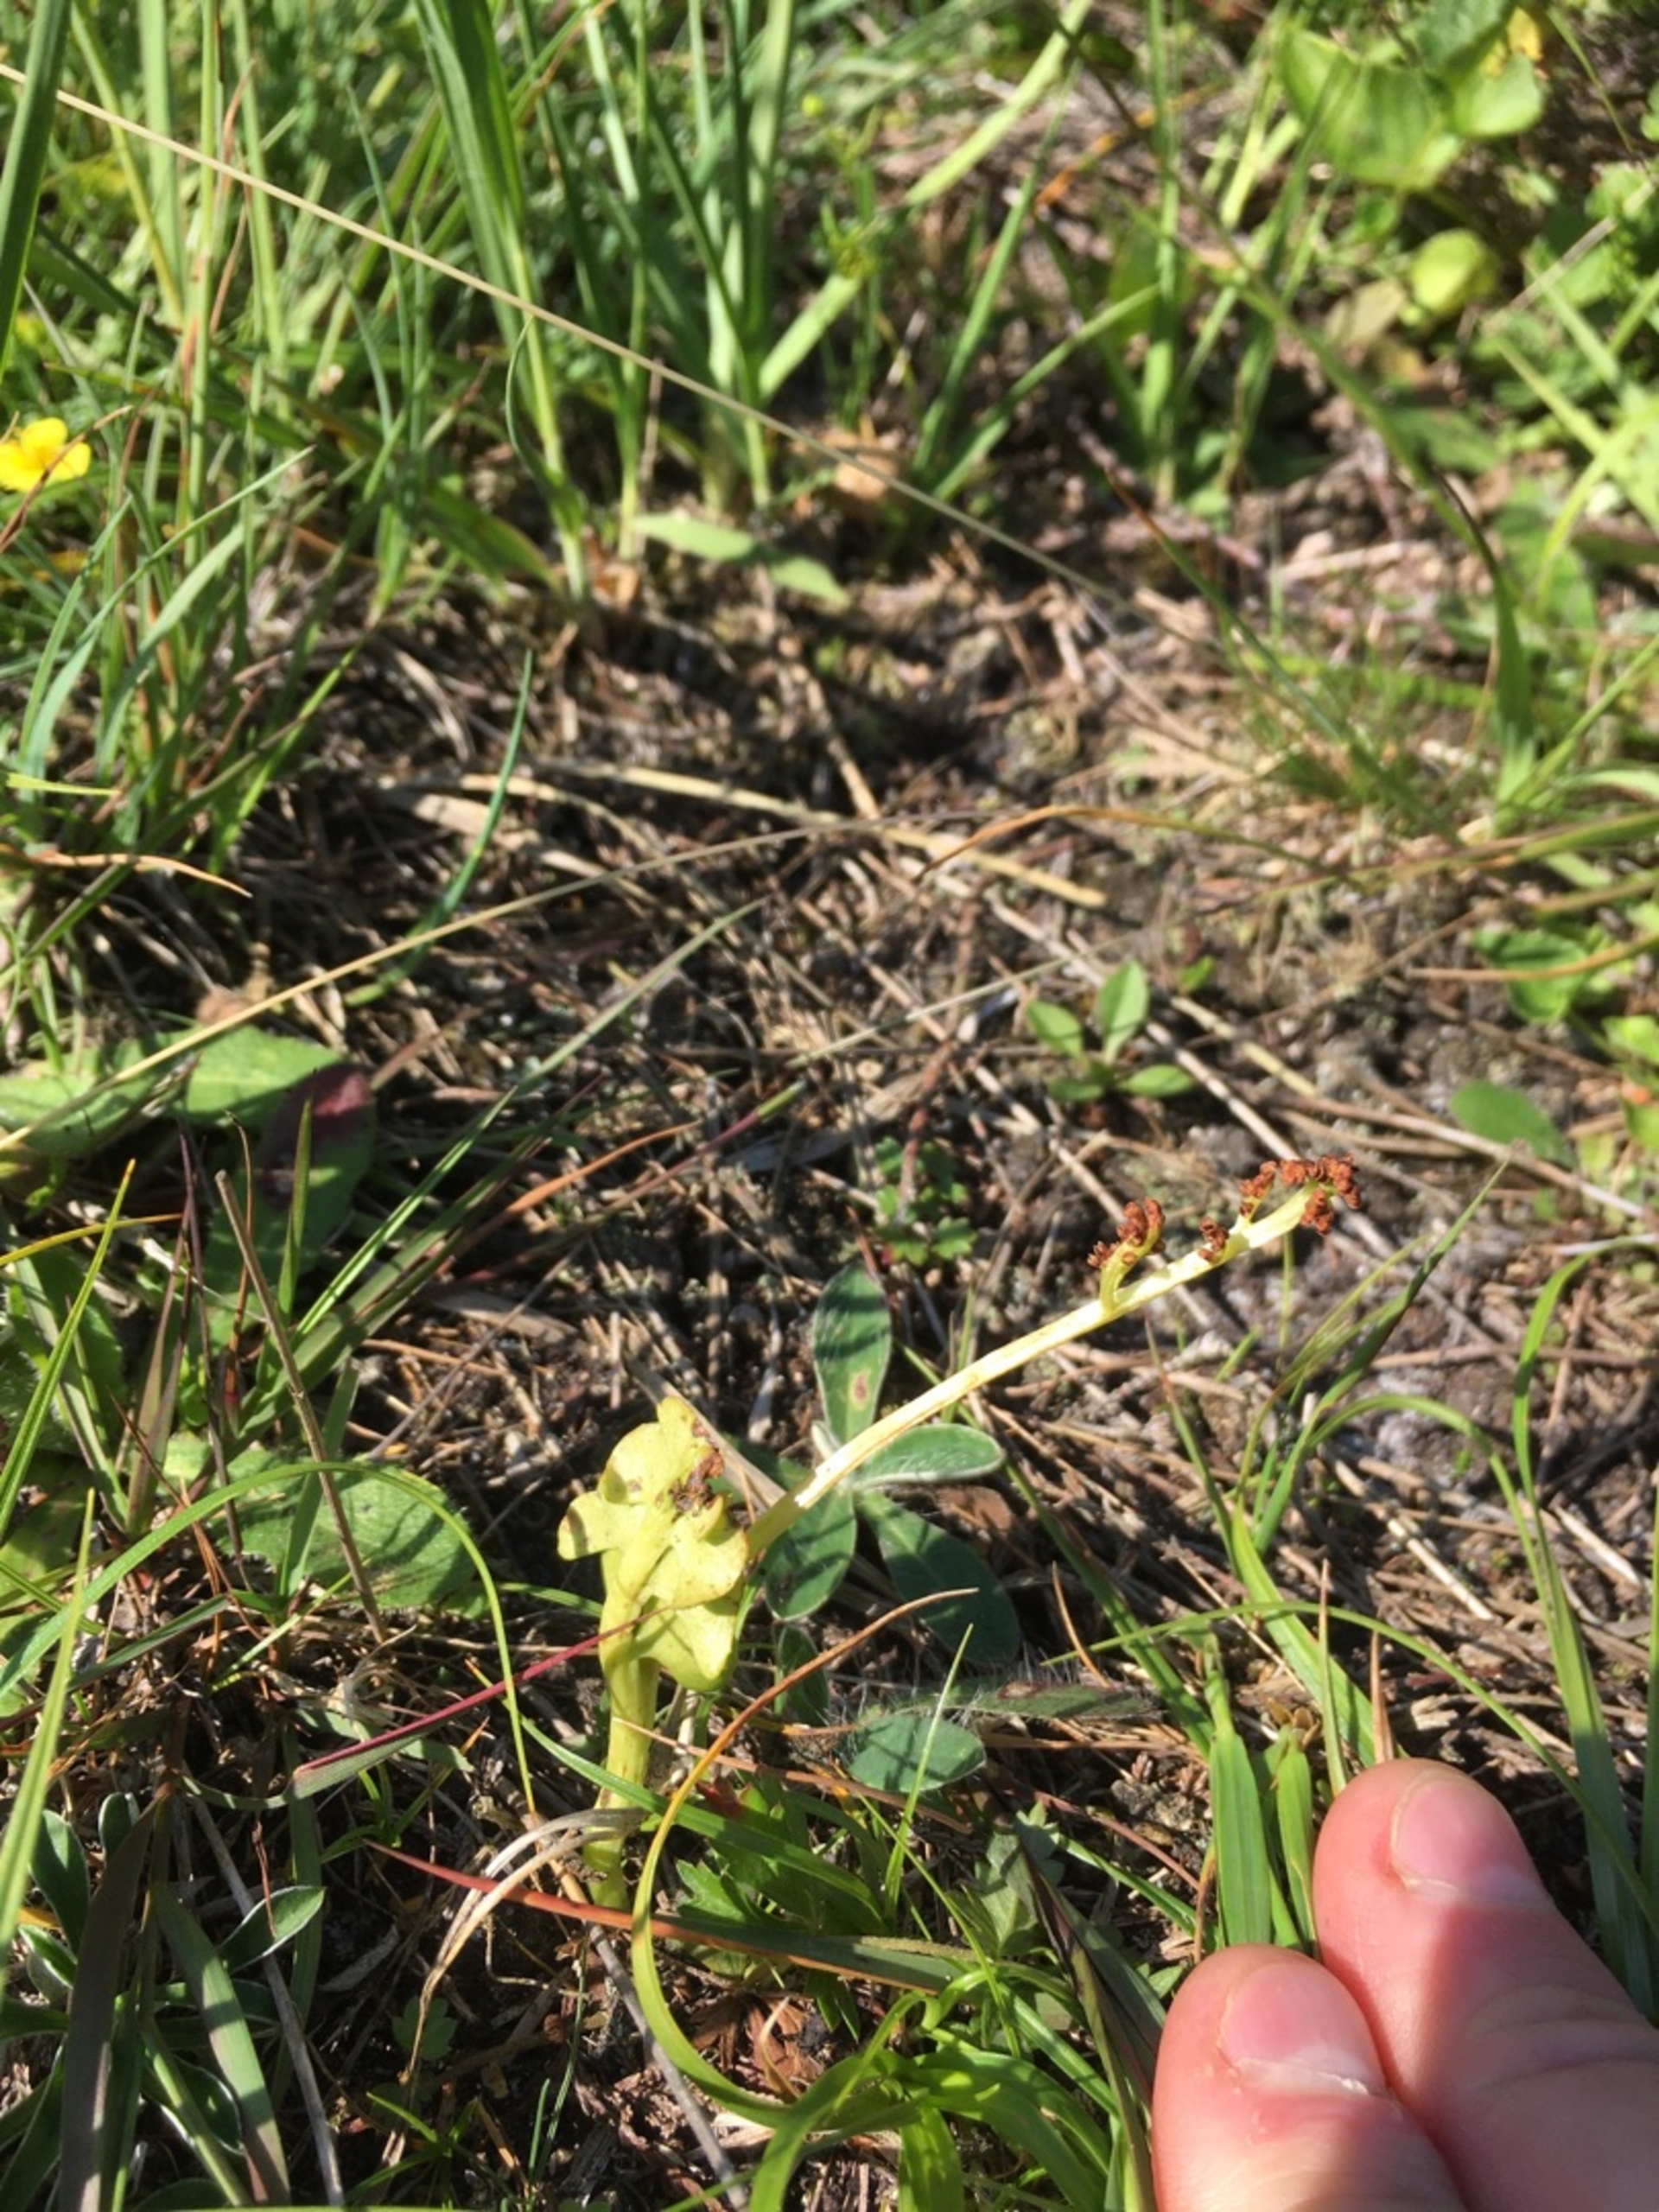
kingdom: Plantae
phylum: Tracheophyta
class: Polypodiopsida
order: Ophioglossales
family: Ophioglossaceae
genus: Botrychium
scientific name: Botrychium lunaria
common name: Almindelig månerude
